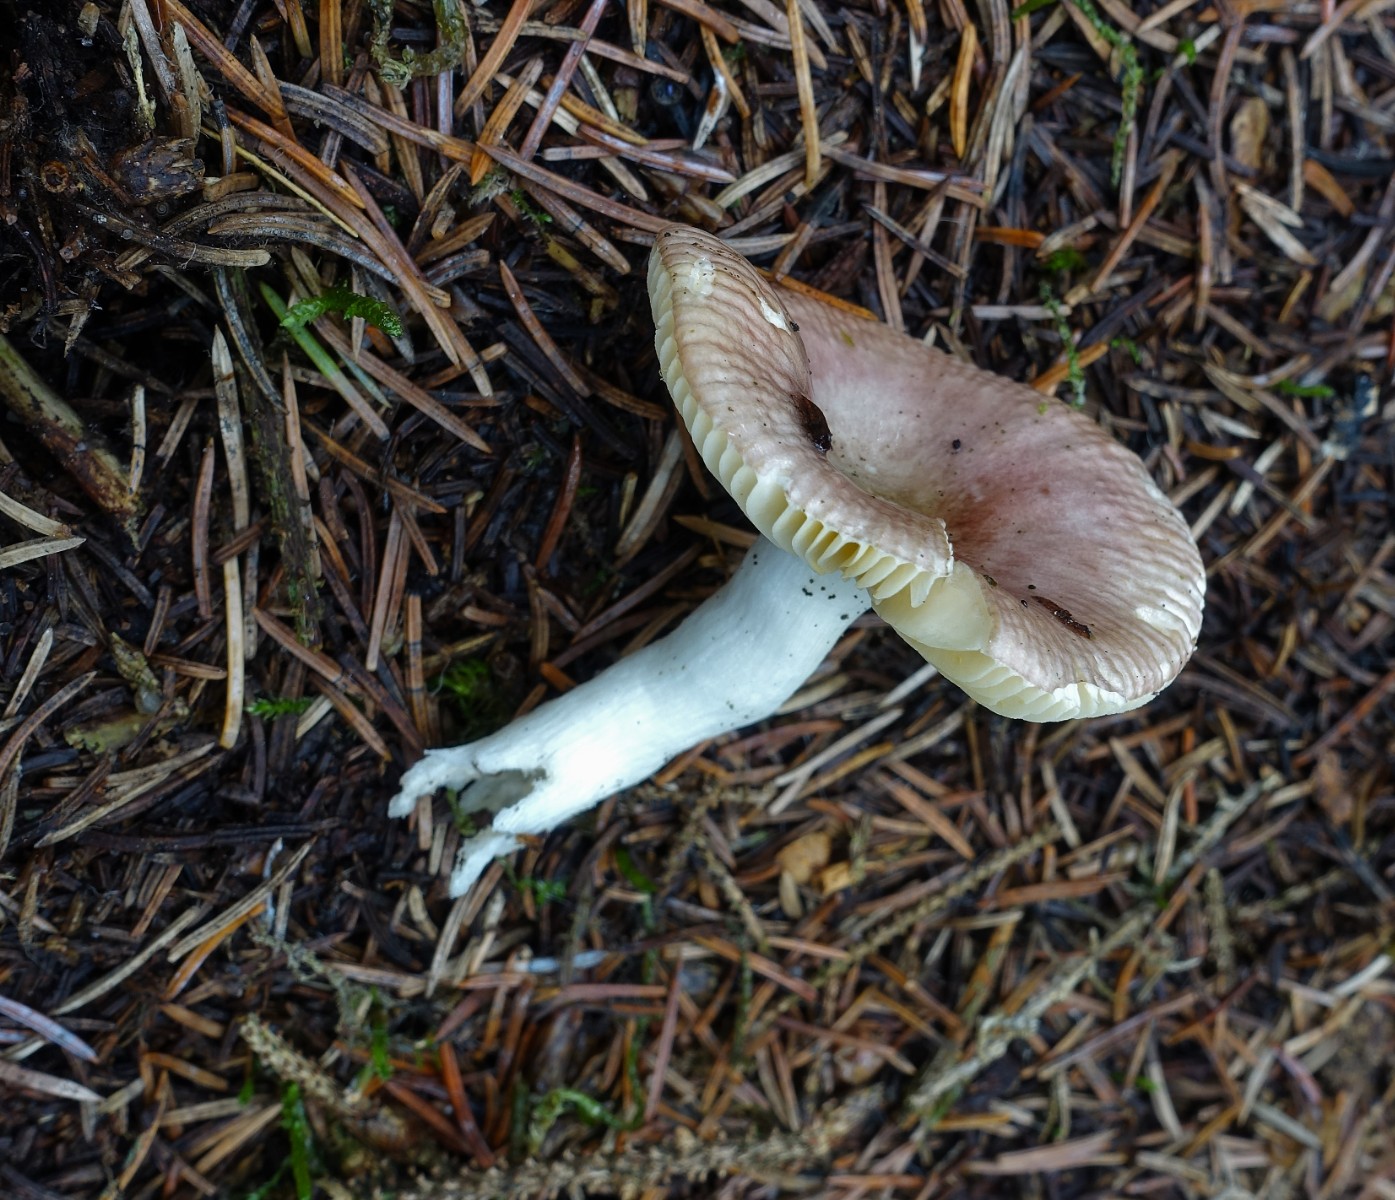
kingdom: Fungi
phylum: Basidiomycota
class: Agaricomycetes
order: Russulales
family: Russulaceae
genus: Russula
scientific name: Russula nauseosa
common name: spinkel skørhat
